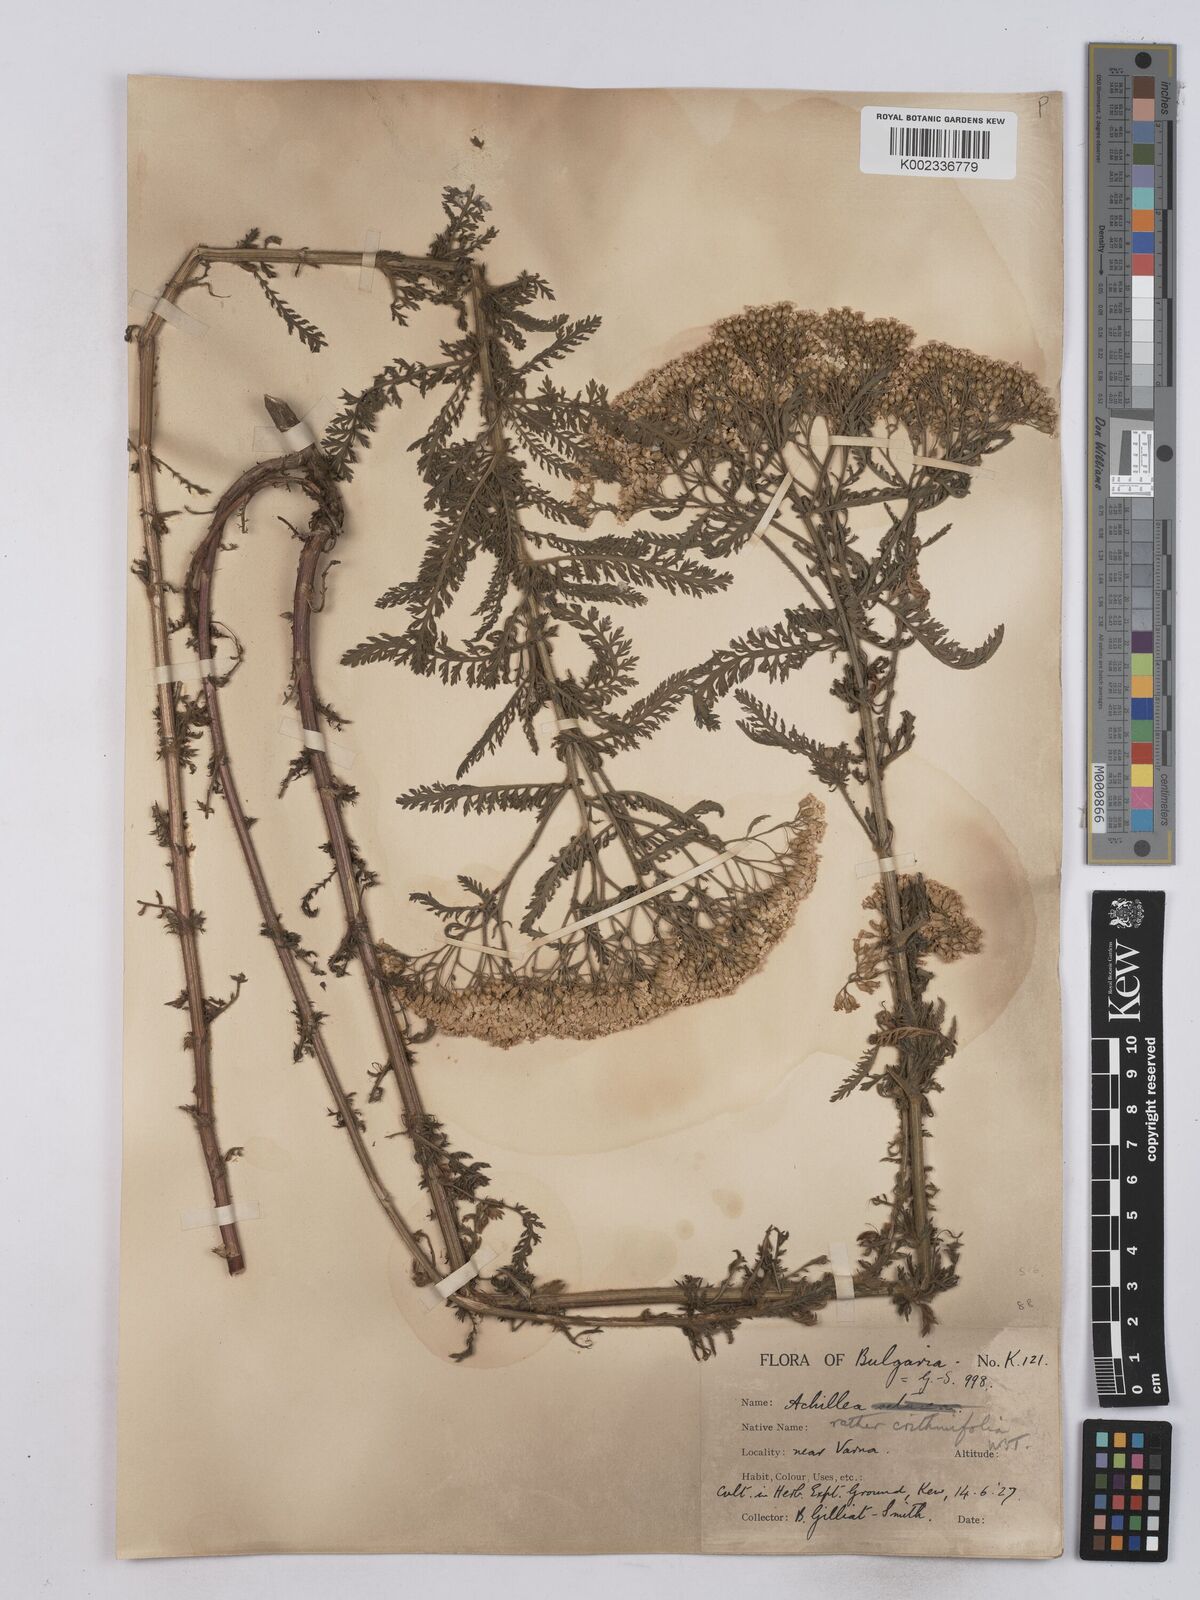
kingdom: Plantae
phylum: Tracheophyta
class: Magnoliopsida
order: Asterales
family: Asteraceae
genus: Achillea
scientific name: Achillea crithmifolia
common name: Yarrow
